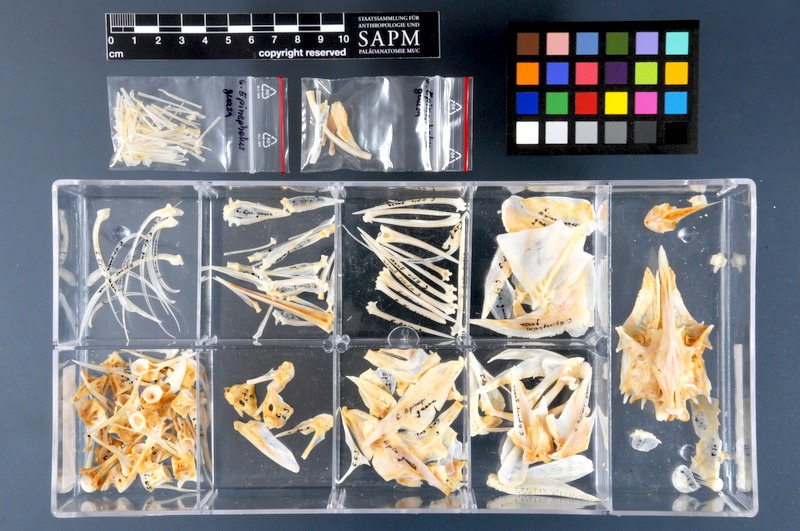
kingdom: Animalia
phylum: Chordata
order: Perciformes
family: Serranidae
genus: Epinephelus
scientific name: Epinephelus marginatus
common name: Dusky grouper
